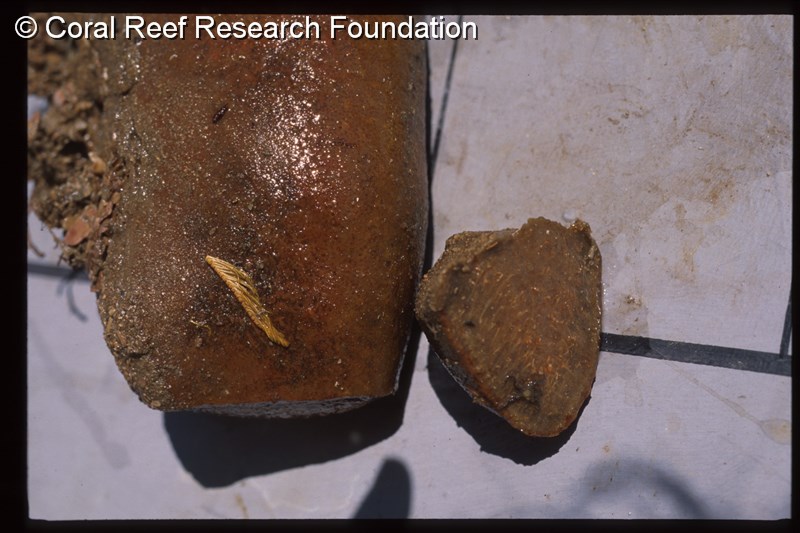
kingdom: Animalia
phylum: Chordata
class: Ascidiacea
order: Aplousobranchia
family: Polyclinidae
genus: Aplidiopsis
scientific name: Aplidiopsis
